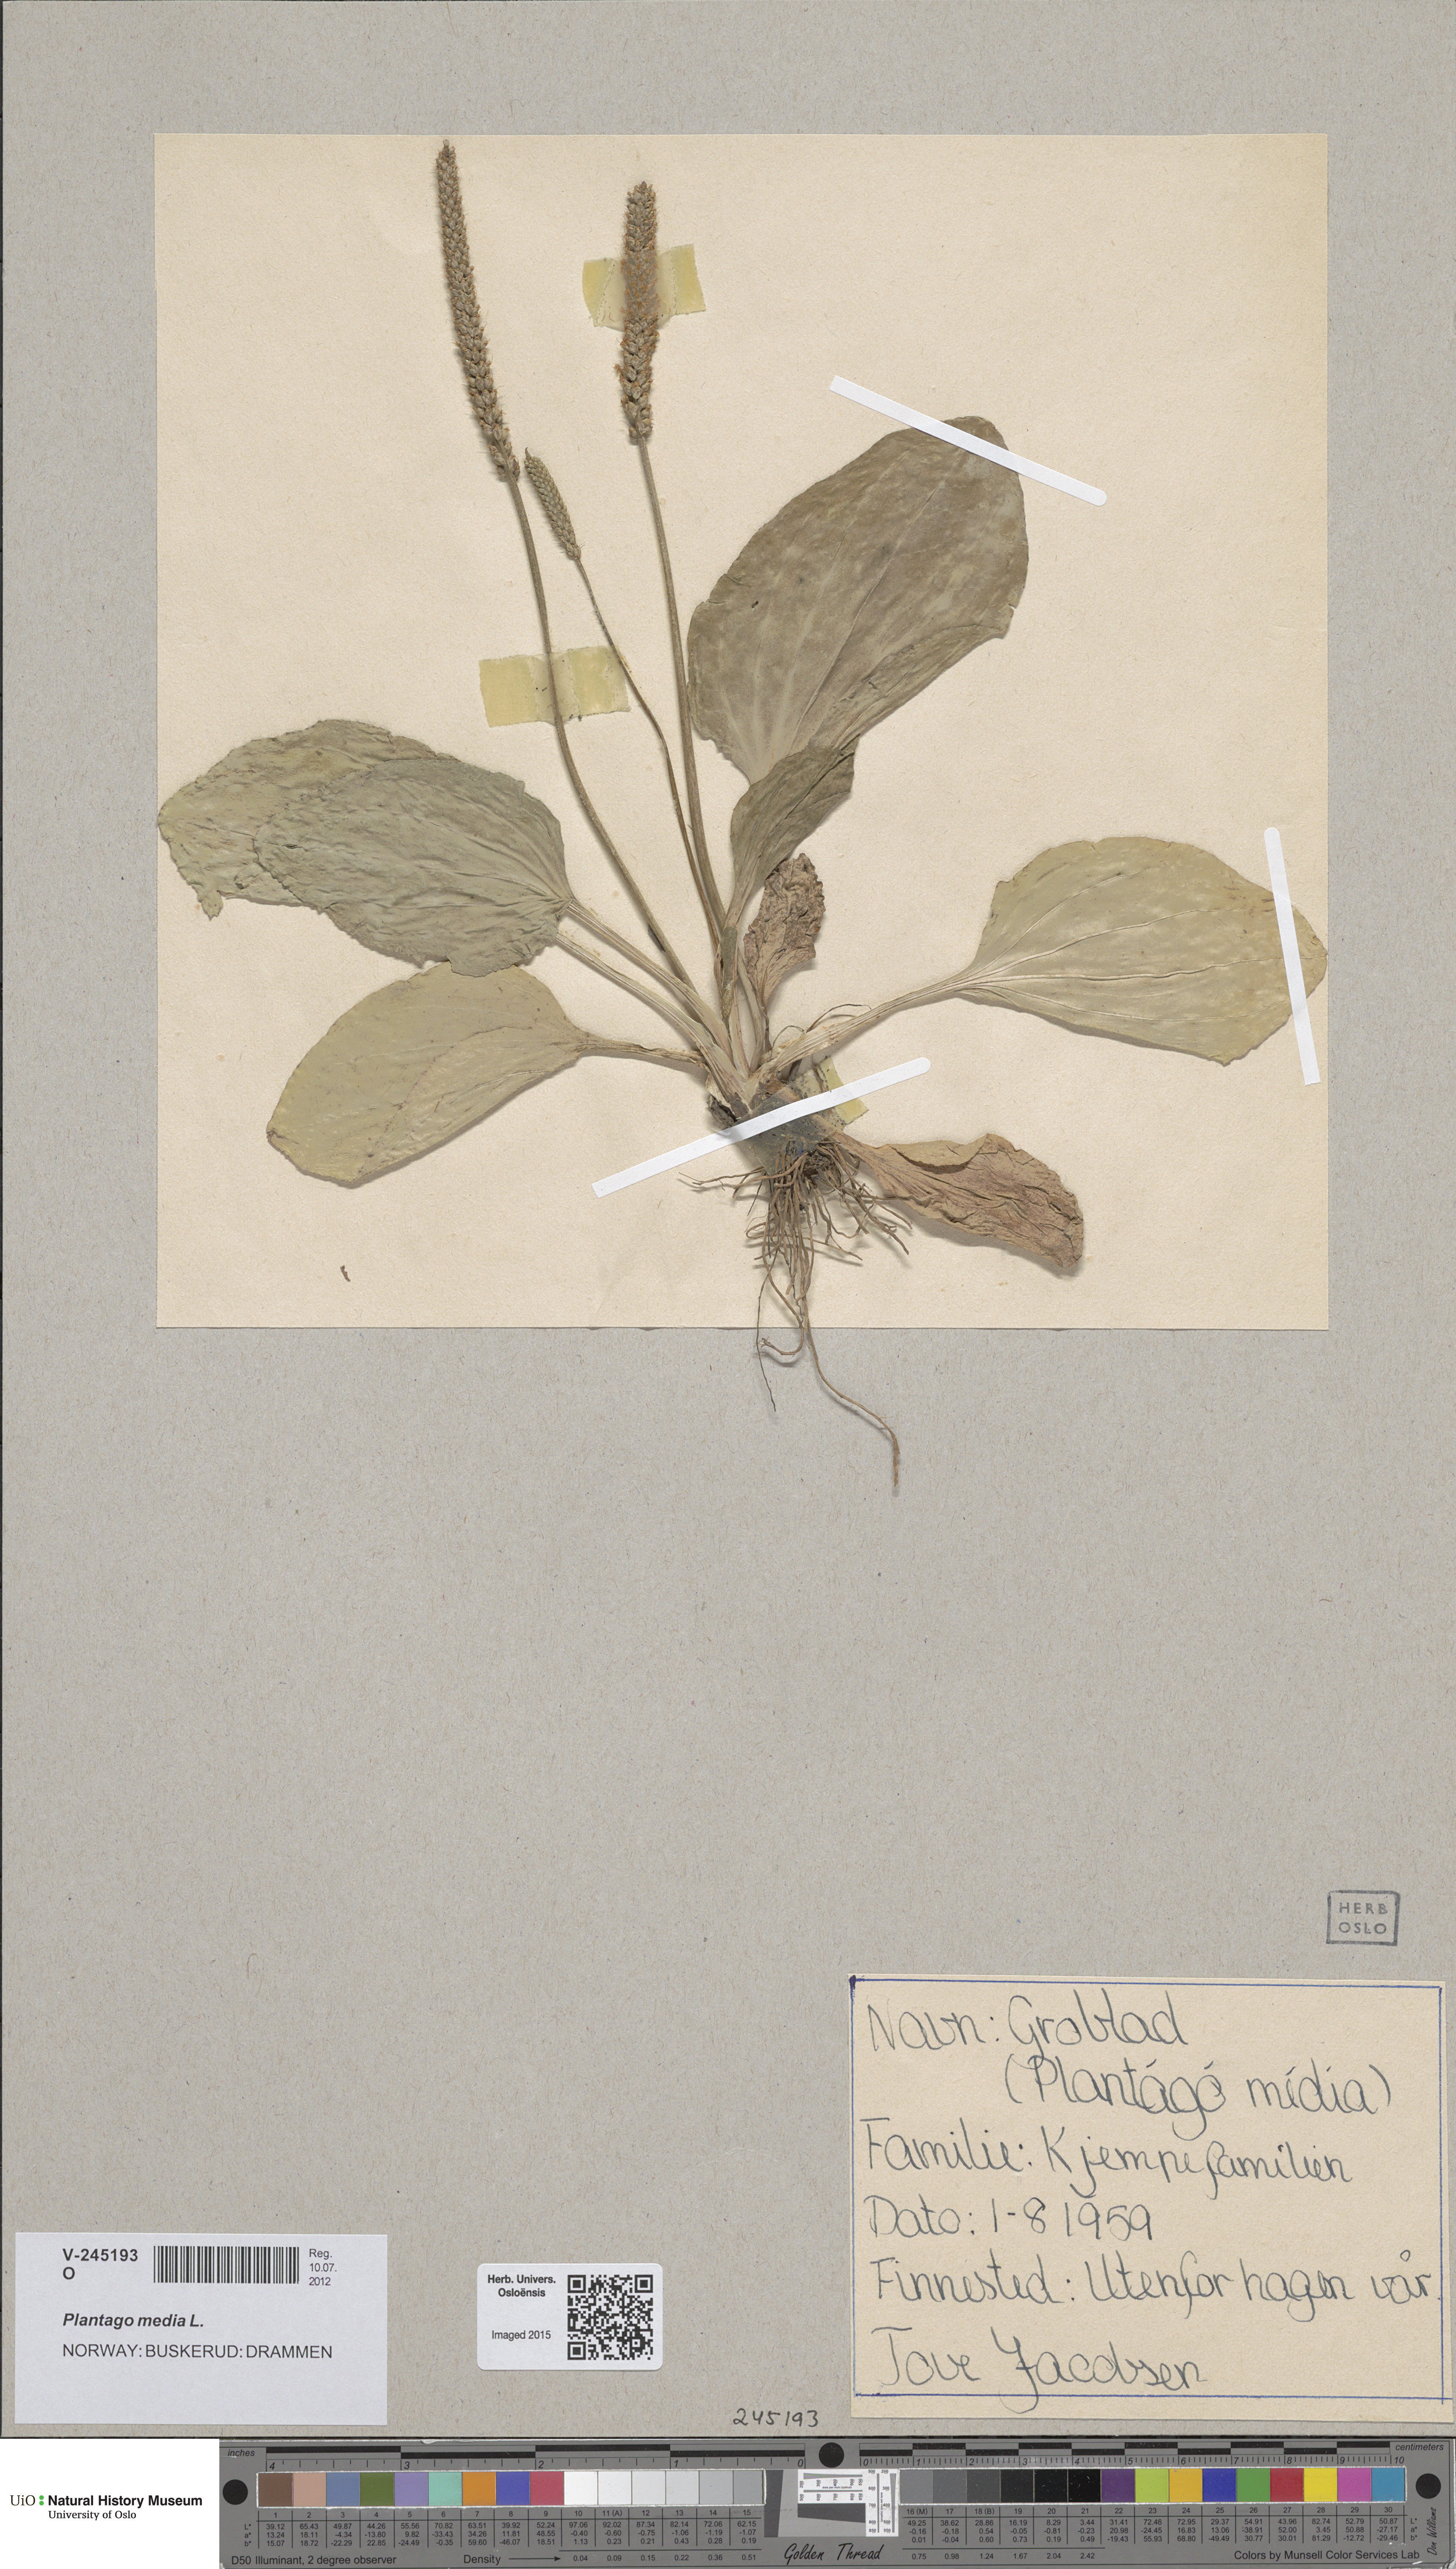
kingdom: Plantae
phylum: Tracheophyta
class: Magnoliopsida
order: Lamiales
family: Plantaginaceae
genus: Plantago
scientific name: Plantago major
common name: Common plantain
